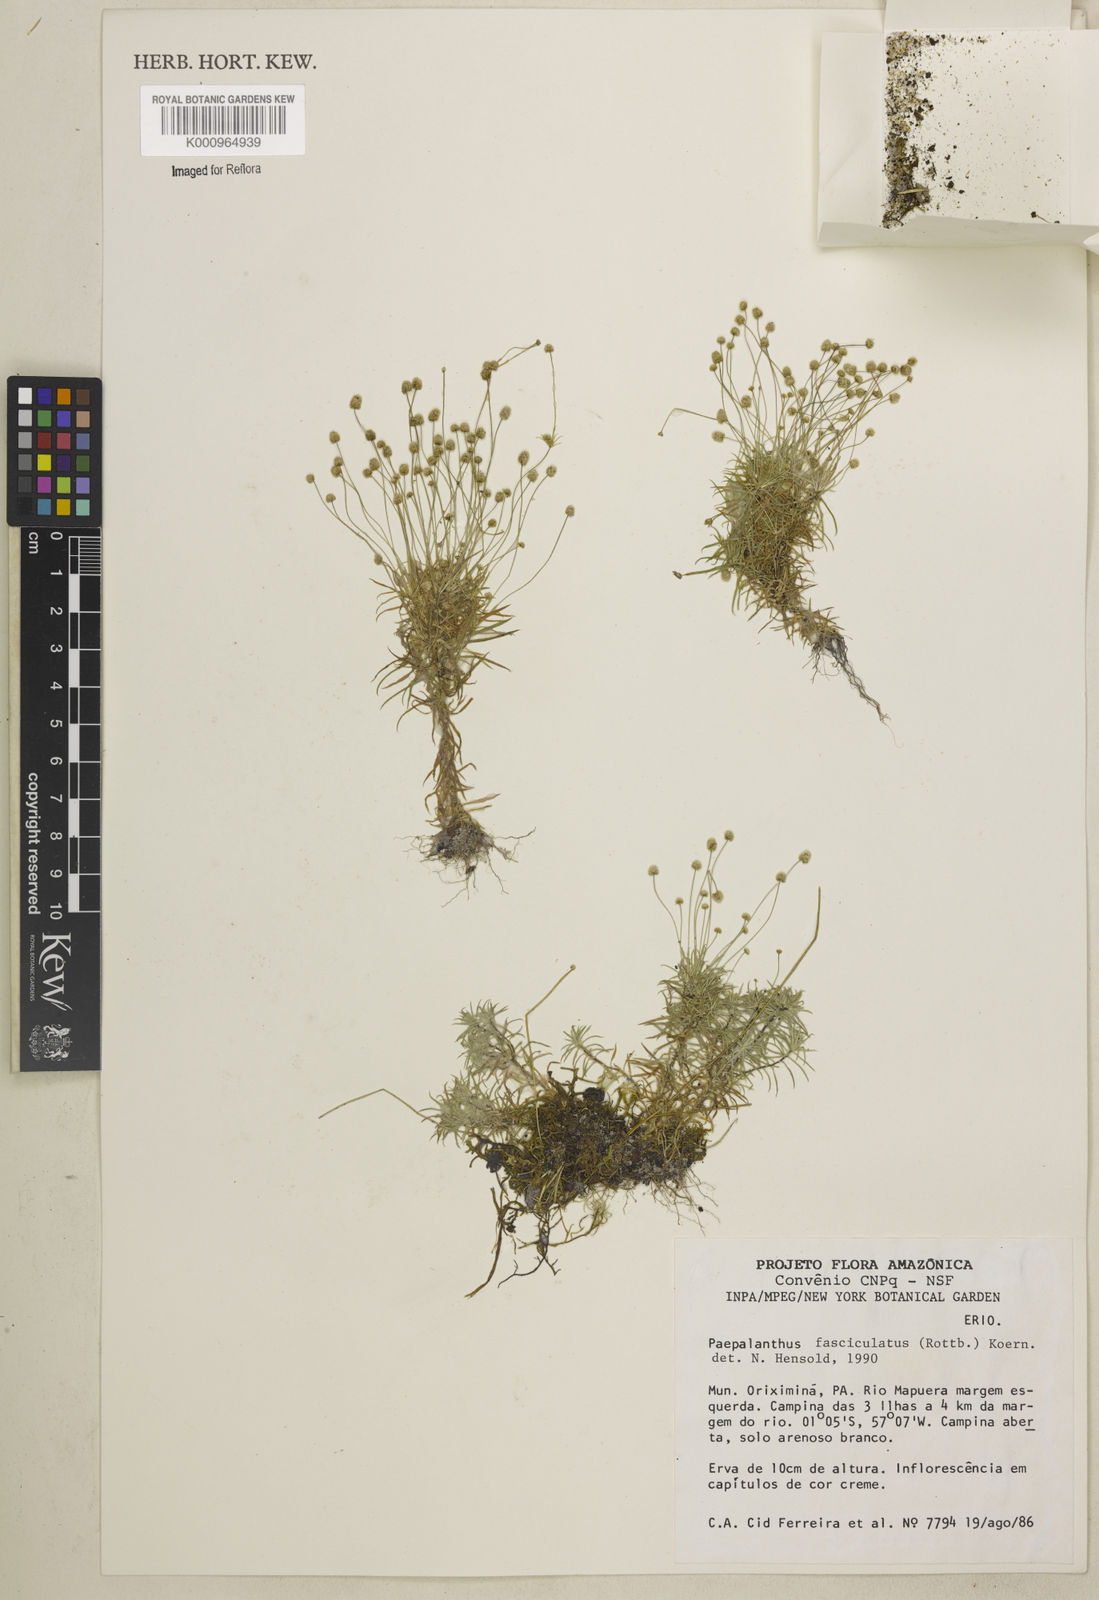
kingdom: Plantae
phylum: Tracheophyta
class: Liliopsida
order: Poales
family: Eriocaulaceae
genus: Paepalanthus
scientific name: Paepalanthus fasciculatus
